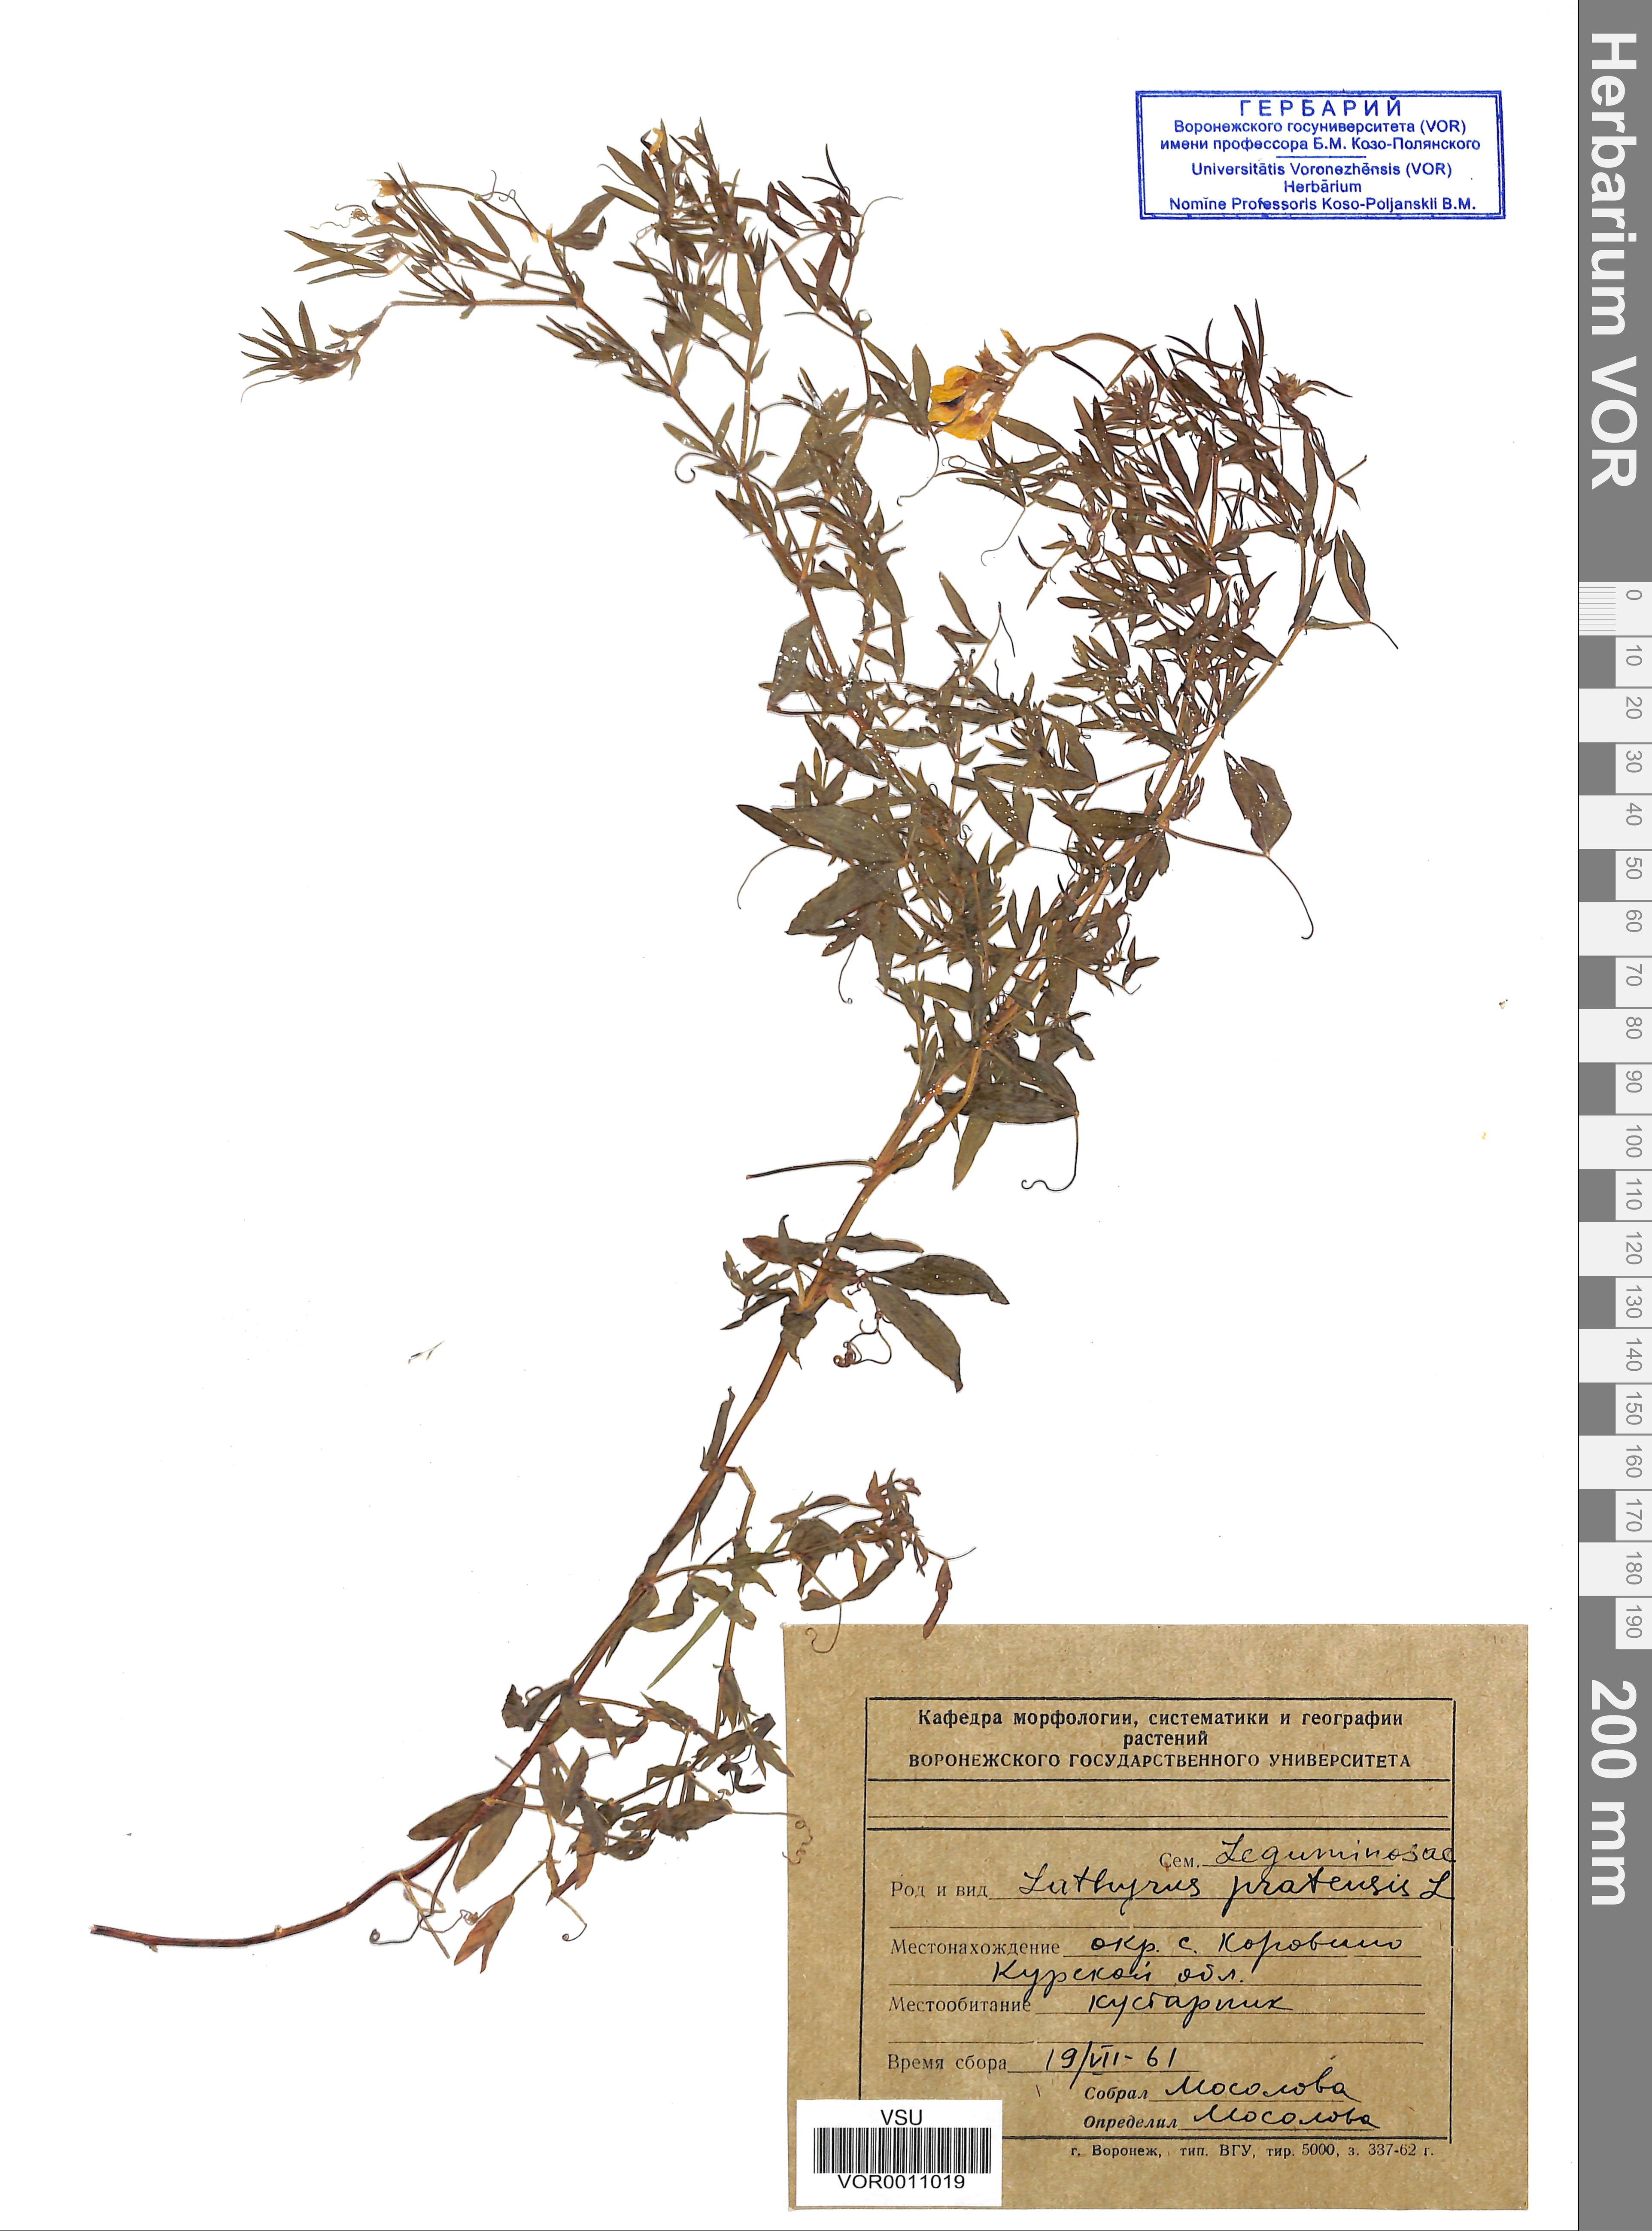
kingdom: Plantae
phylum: Tracheophyta
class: Magnoliopsida
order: Fabales
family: Fabaceae
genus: Lathyrus
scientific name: Lathyrus pratensis
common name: Meadow vetchling
